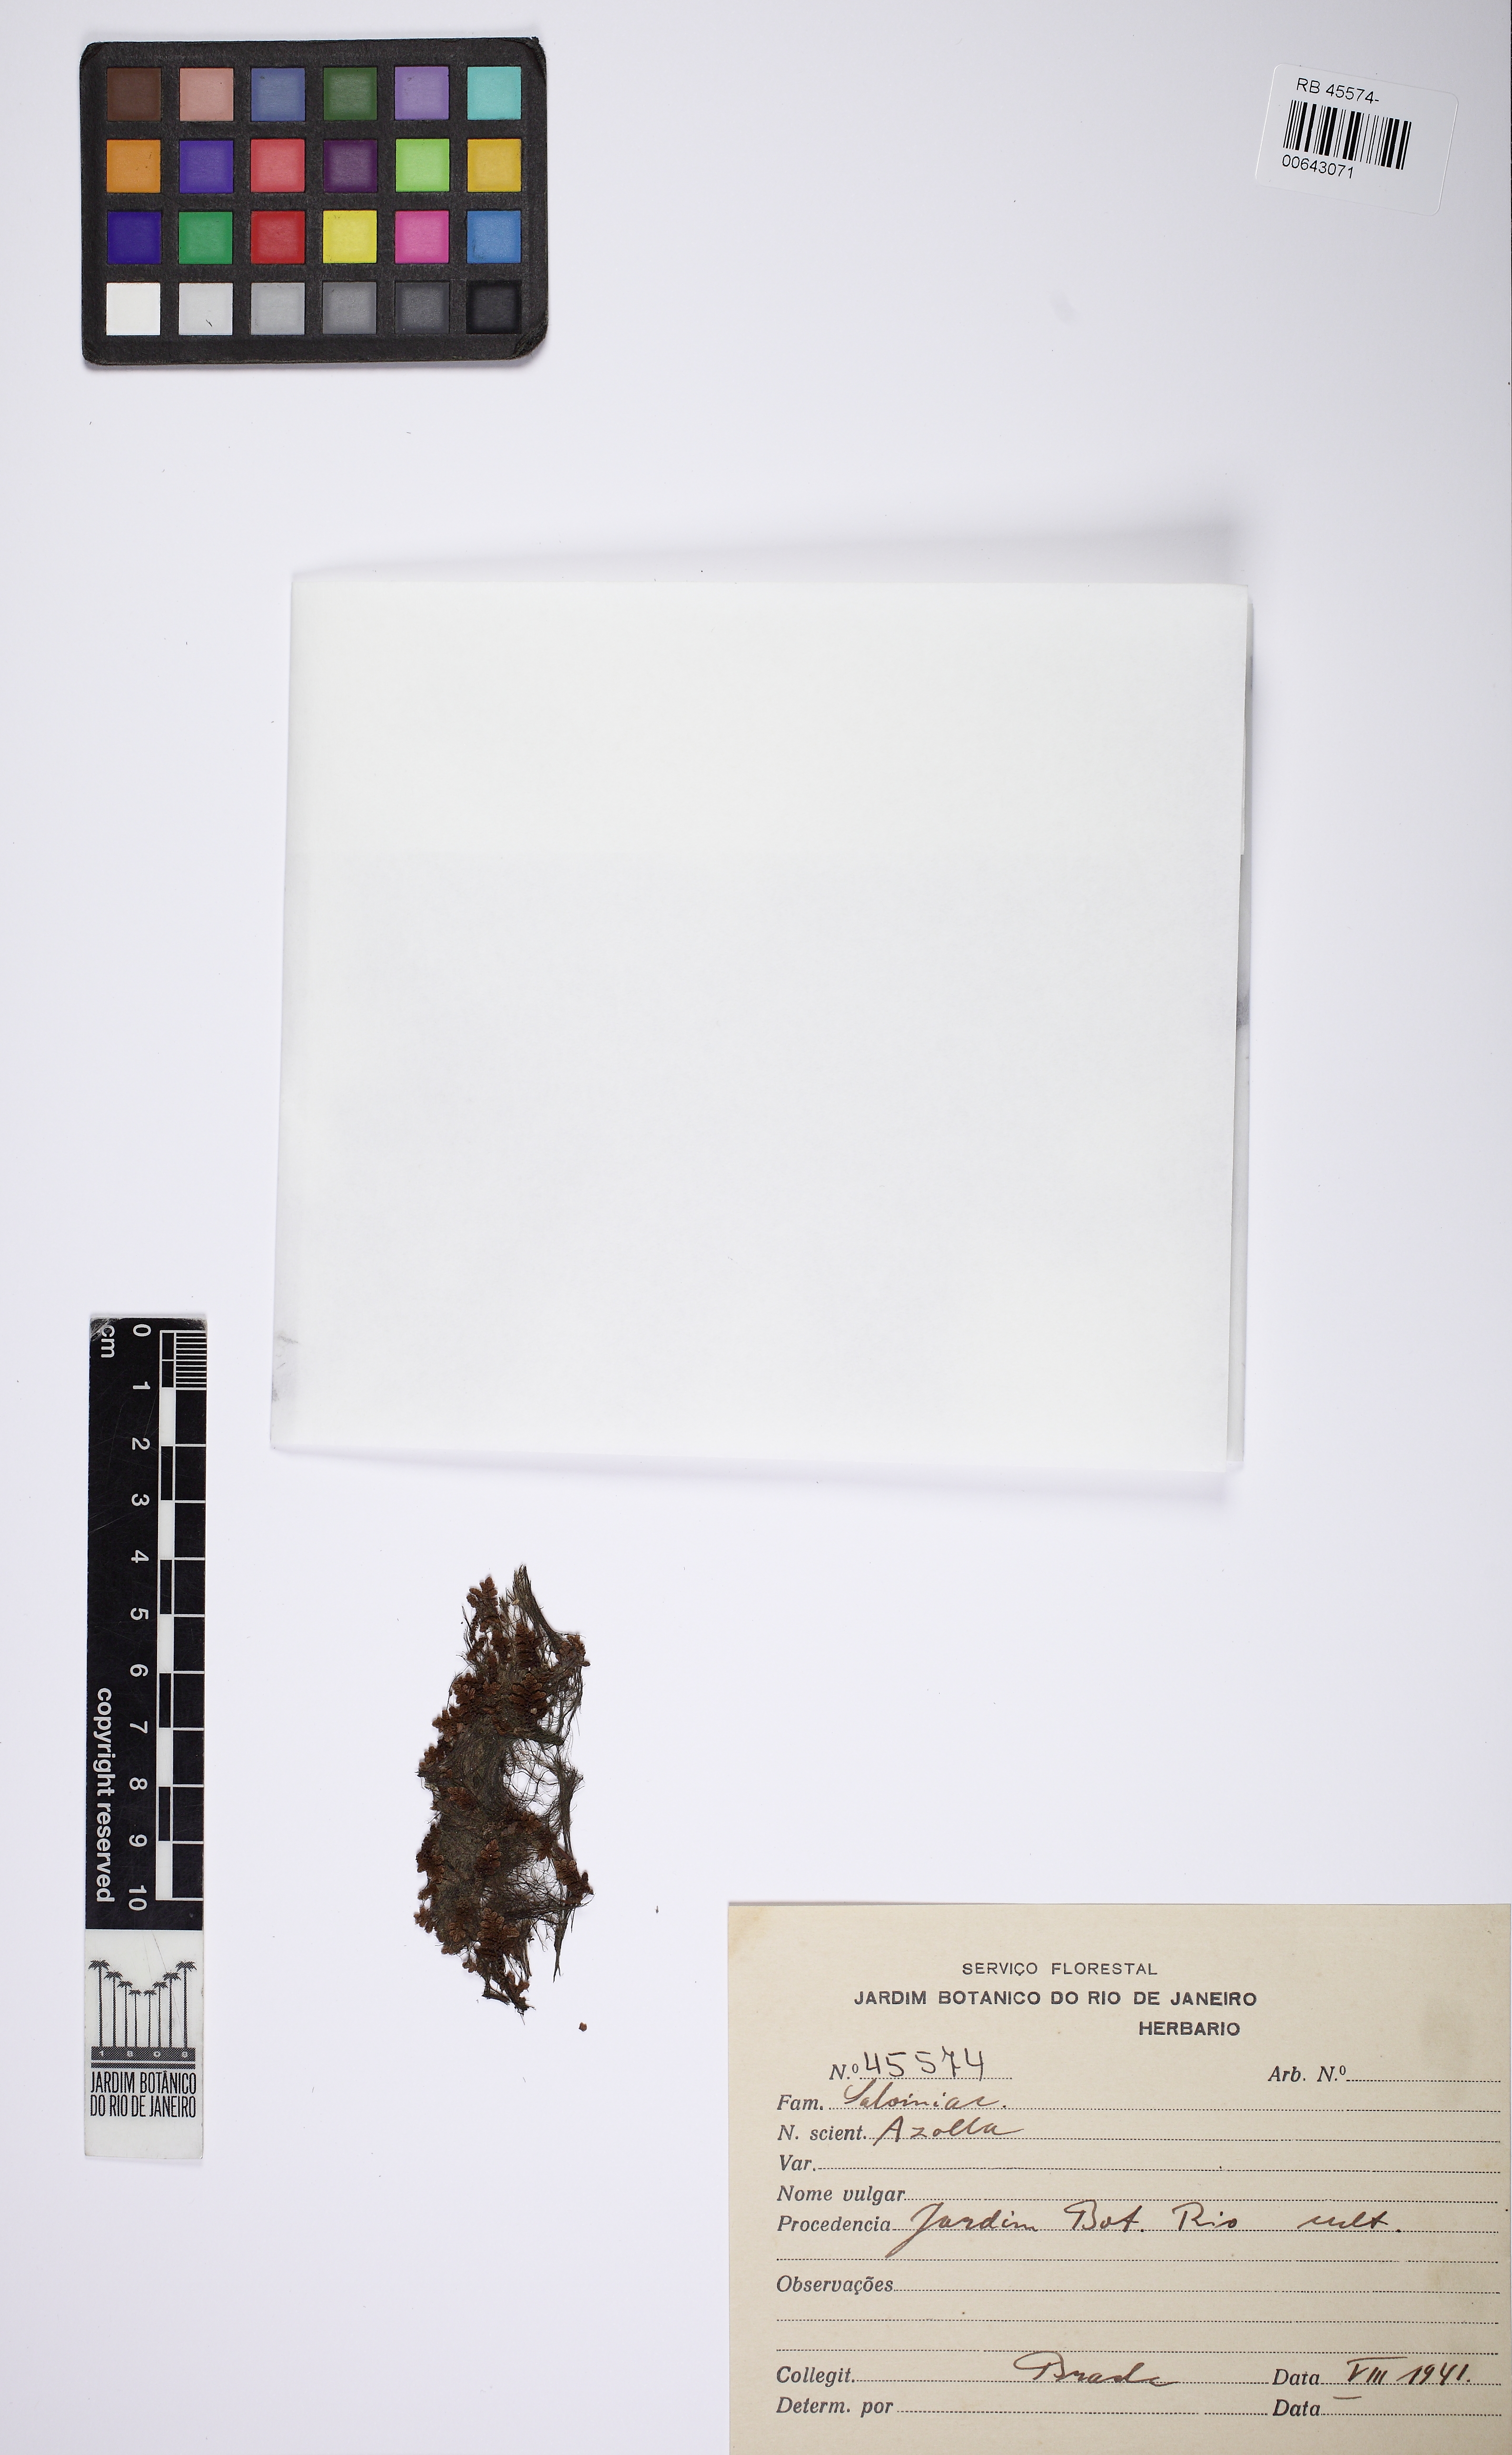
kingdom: Plantae
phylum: Tracheophyta
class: Polypodiopsida
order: Salviniales
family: Salviniaceae
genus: Azolla
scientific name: Azolla
